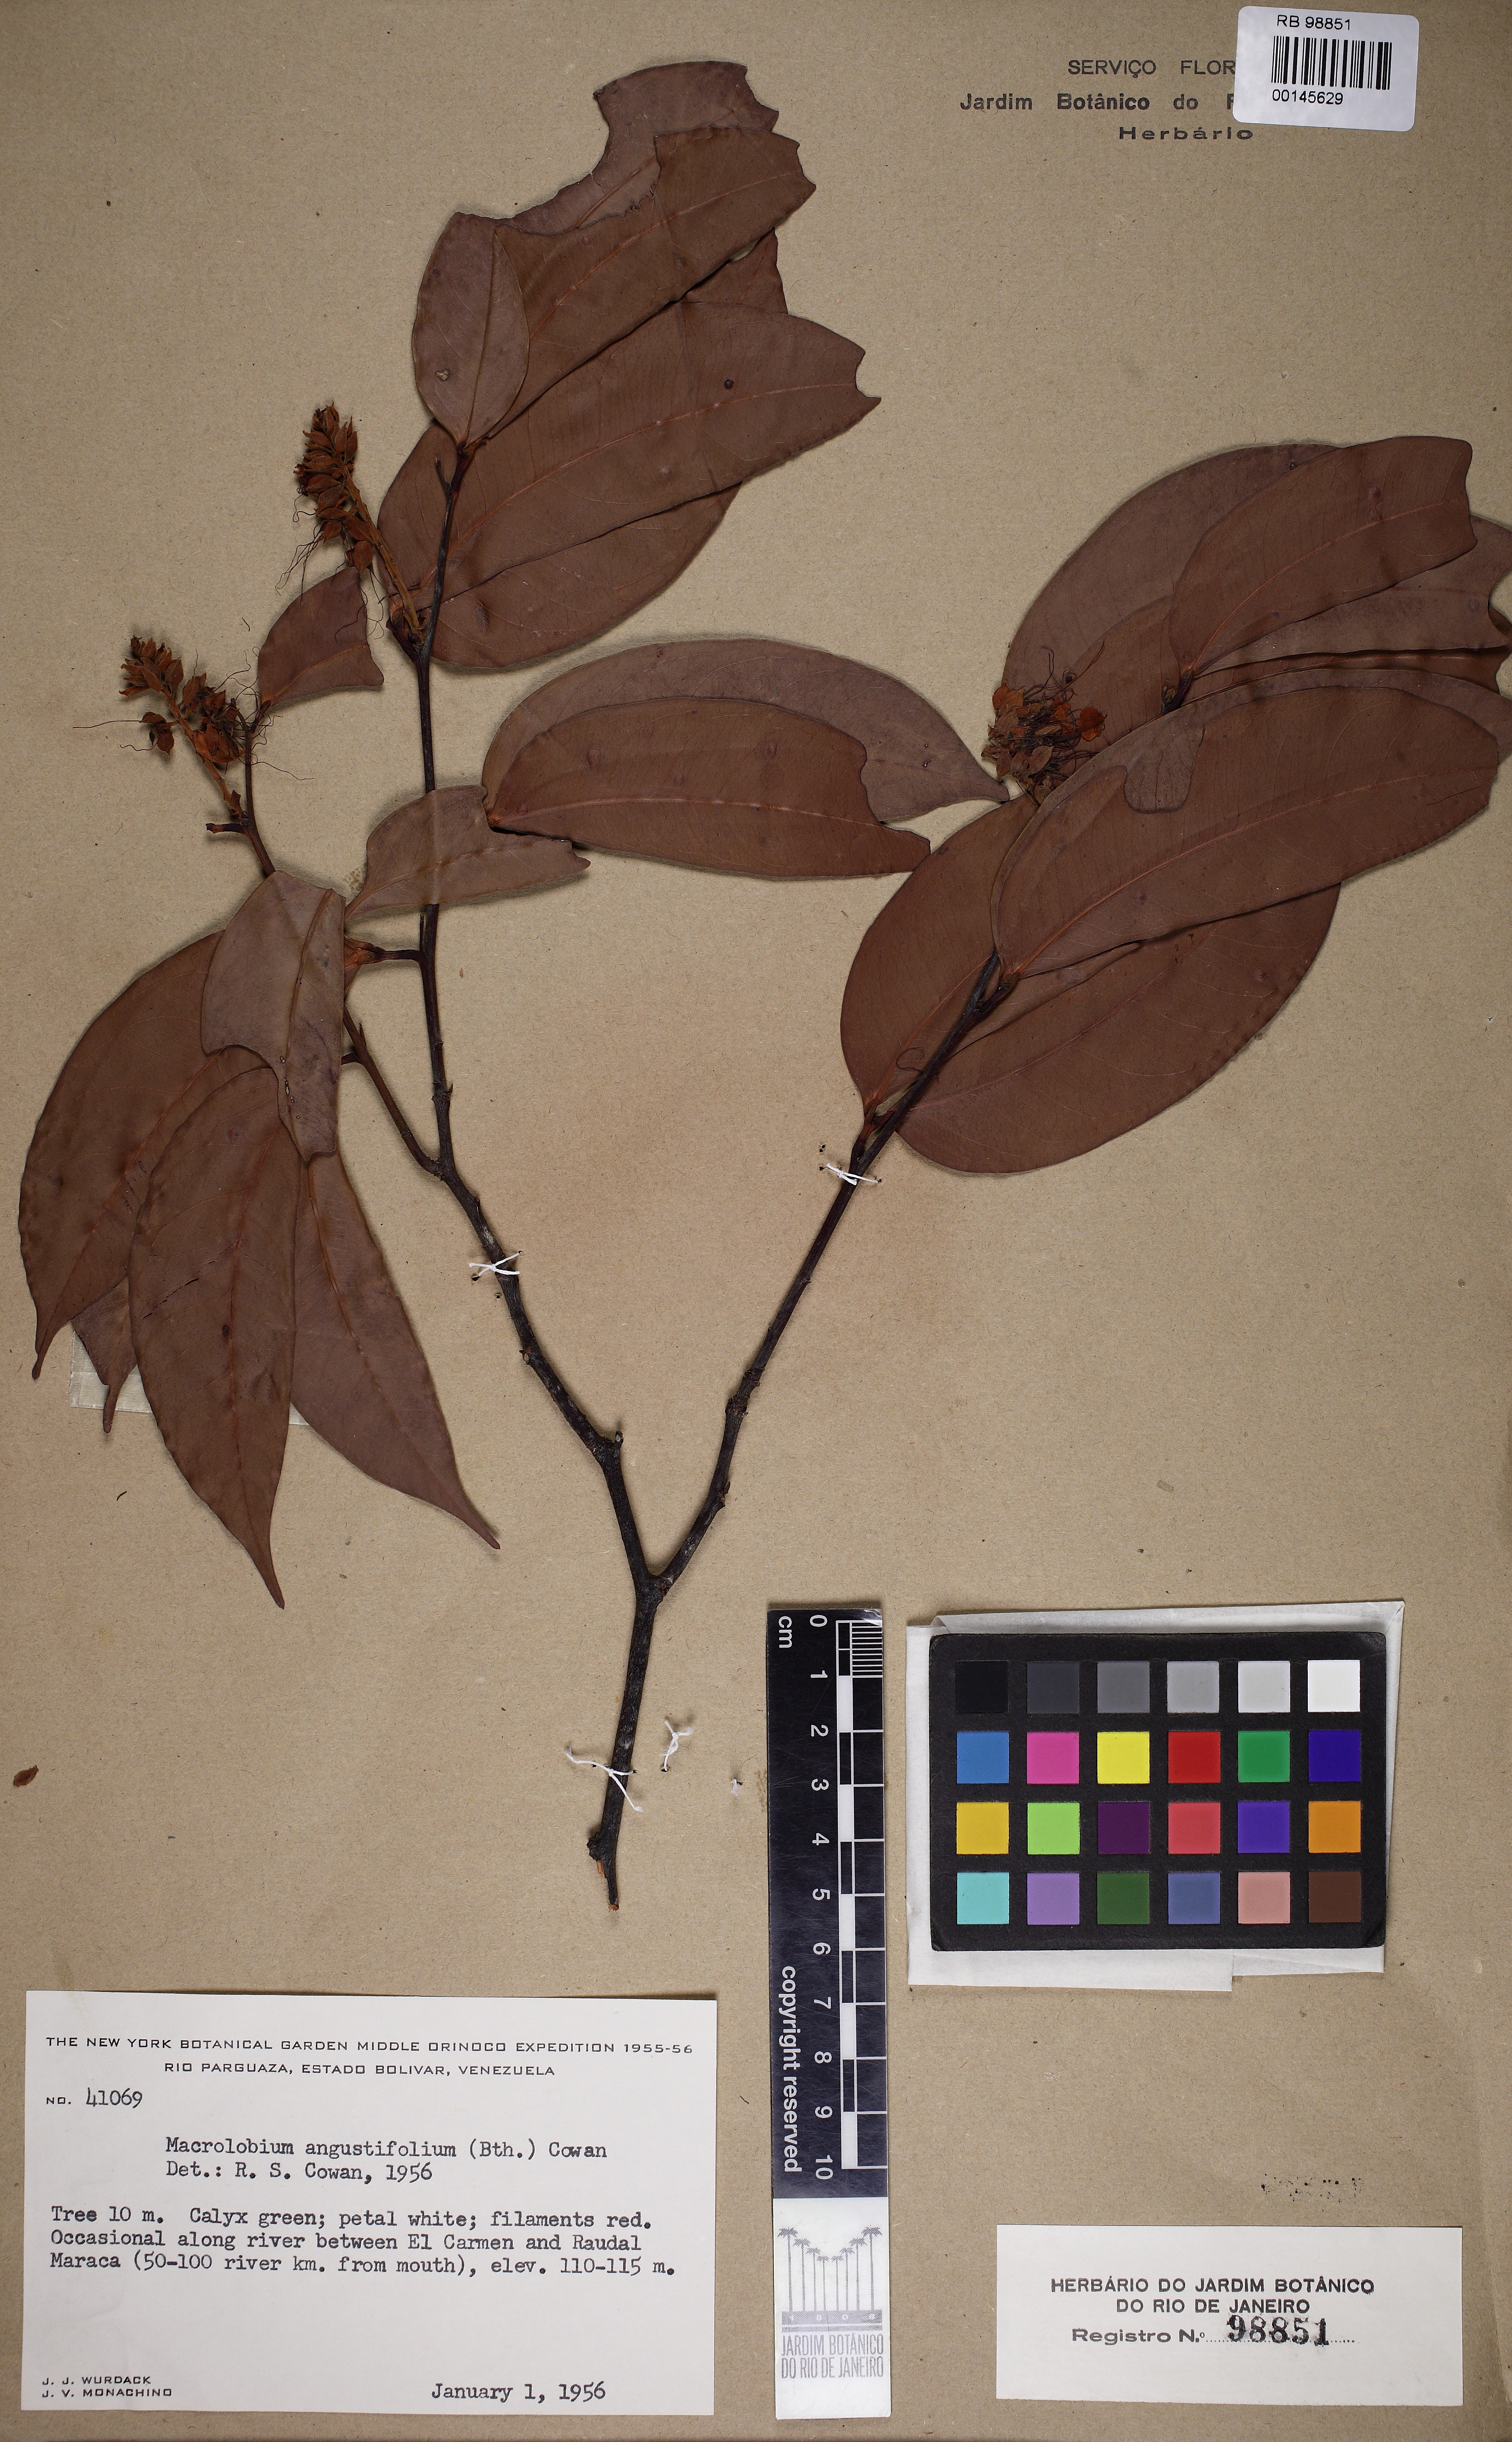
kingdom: Plantae
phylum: Tracheophyta
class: Magnoliopsida
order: Fabales
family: Fabaceae
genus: Macrolobium
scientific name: Macrolobium angustifolium
